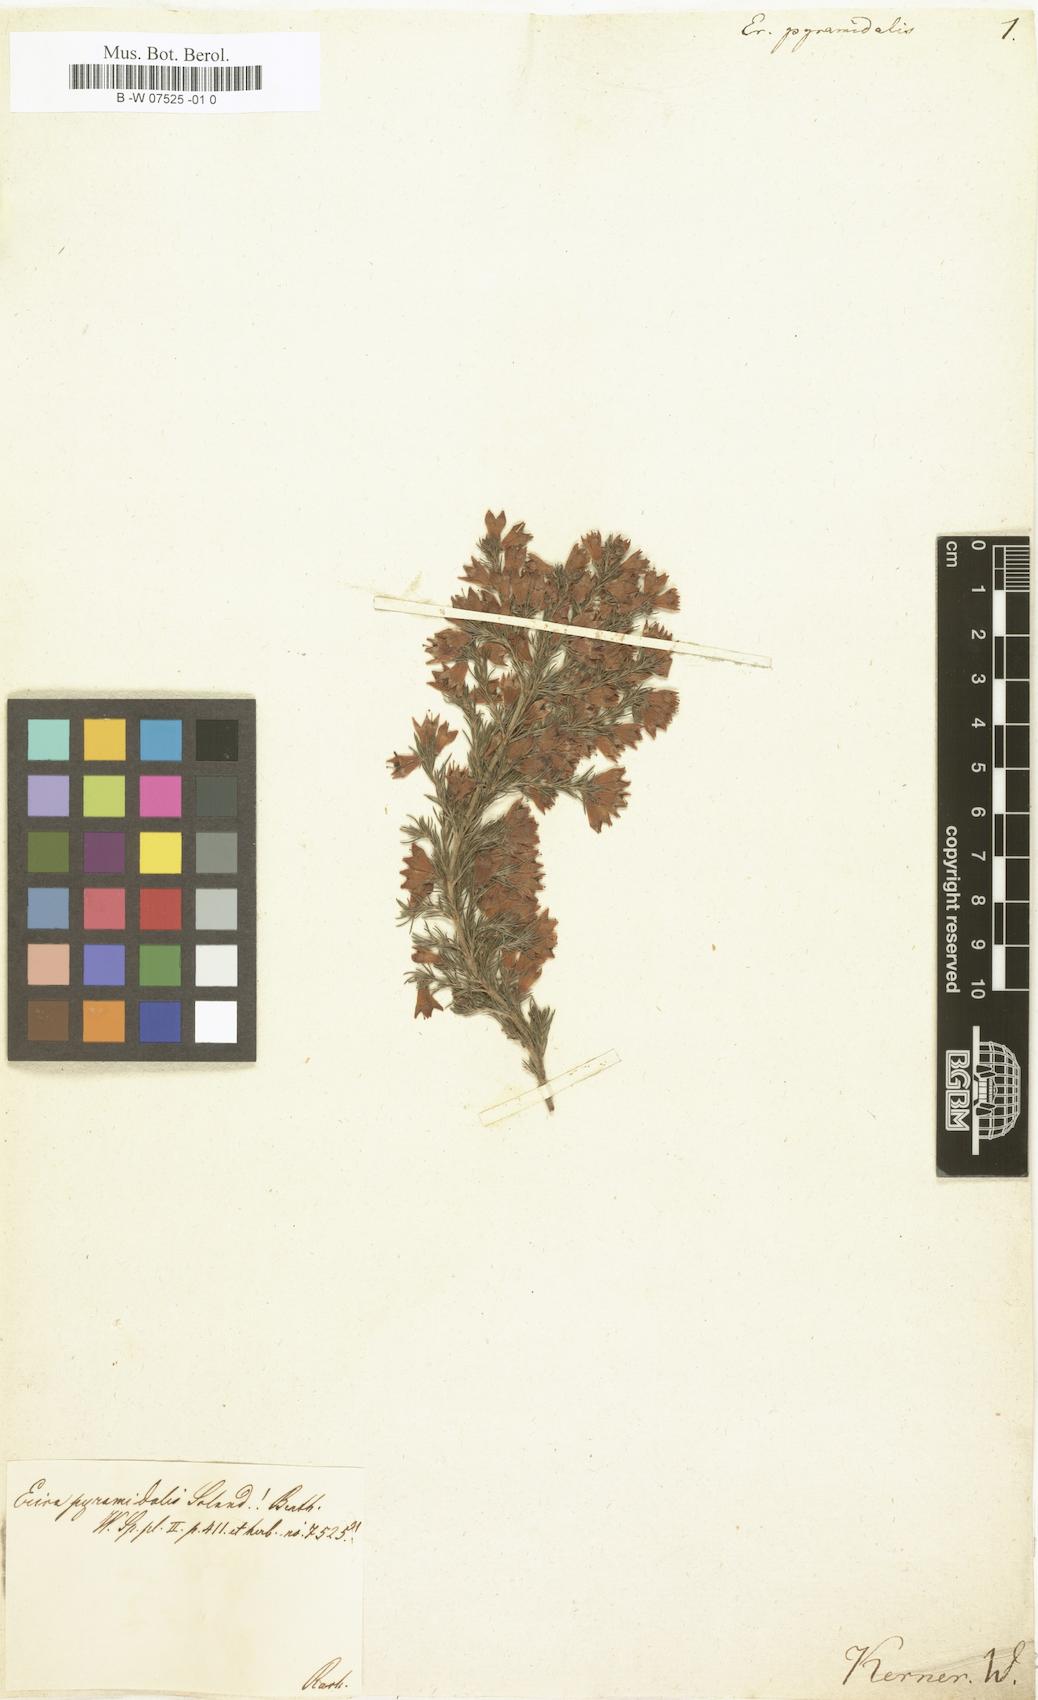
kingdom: Plantae
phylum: Tracheophyta
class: Magnoliopsida
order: Ericales
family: Ericaceae
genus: Erica
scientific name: Erica pyramidalis
